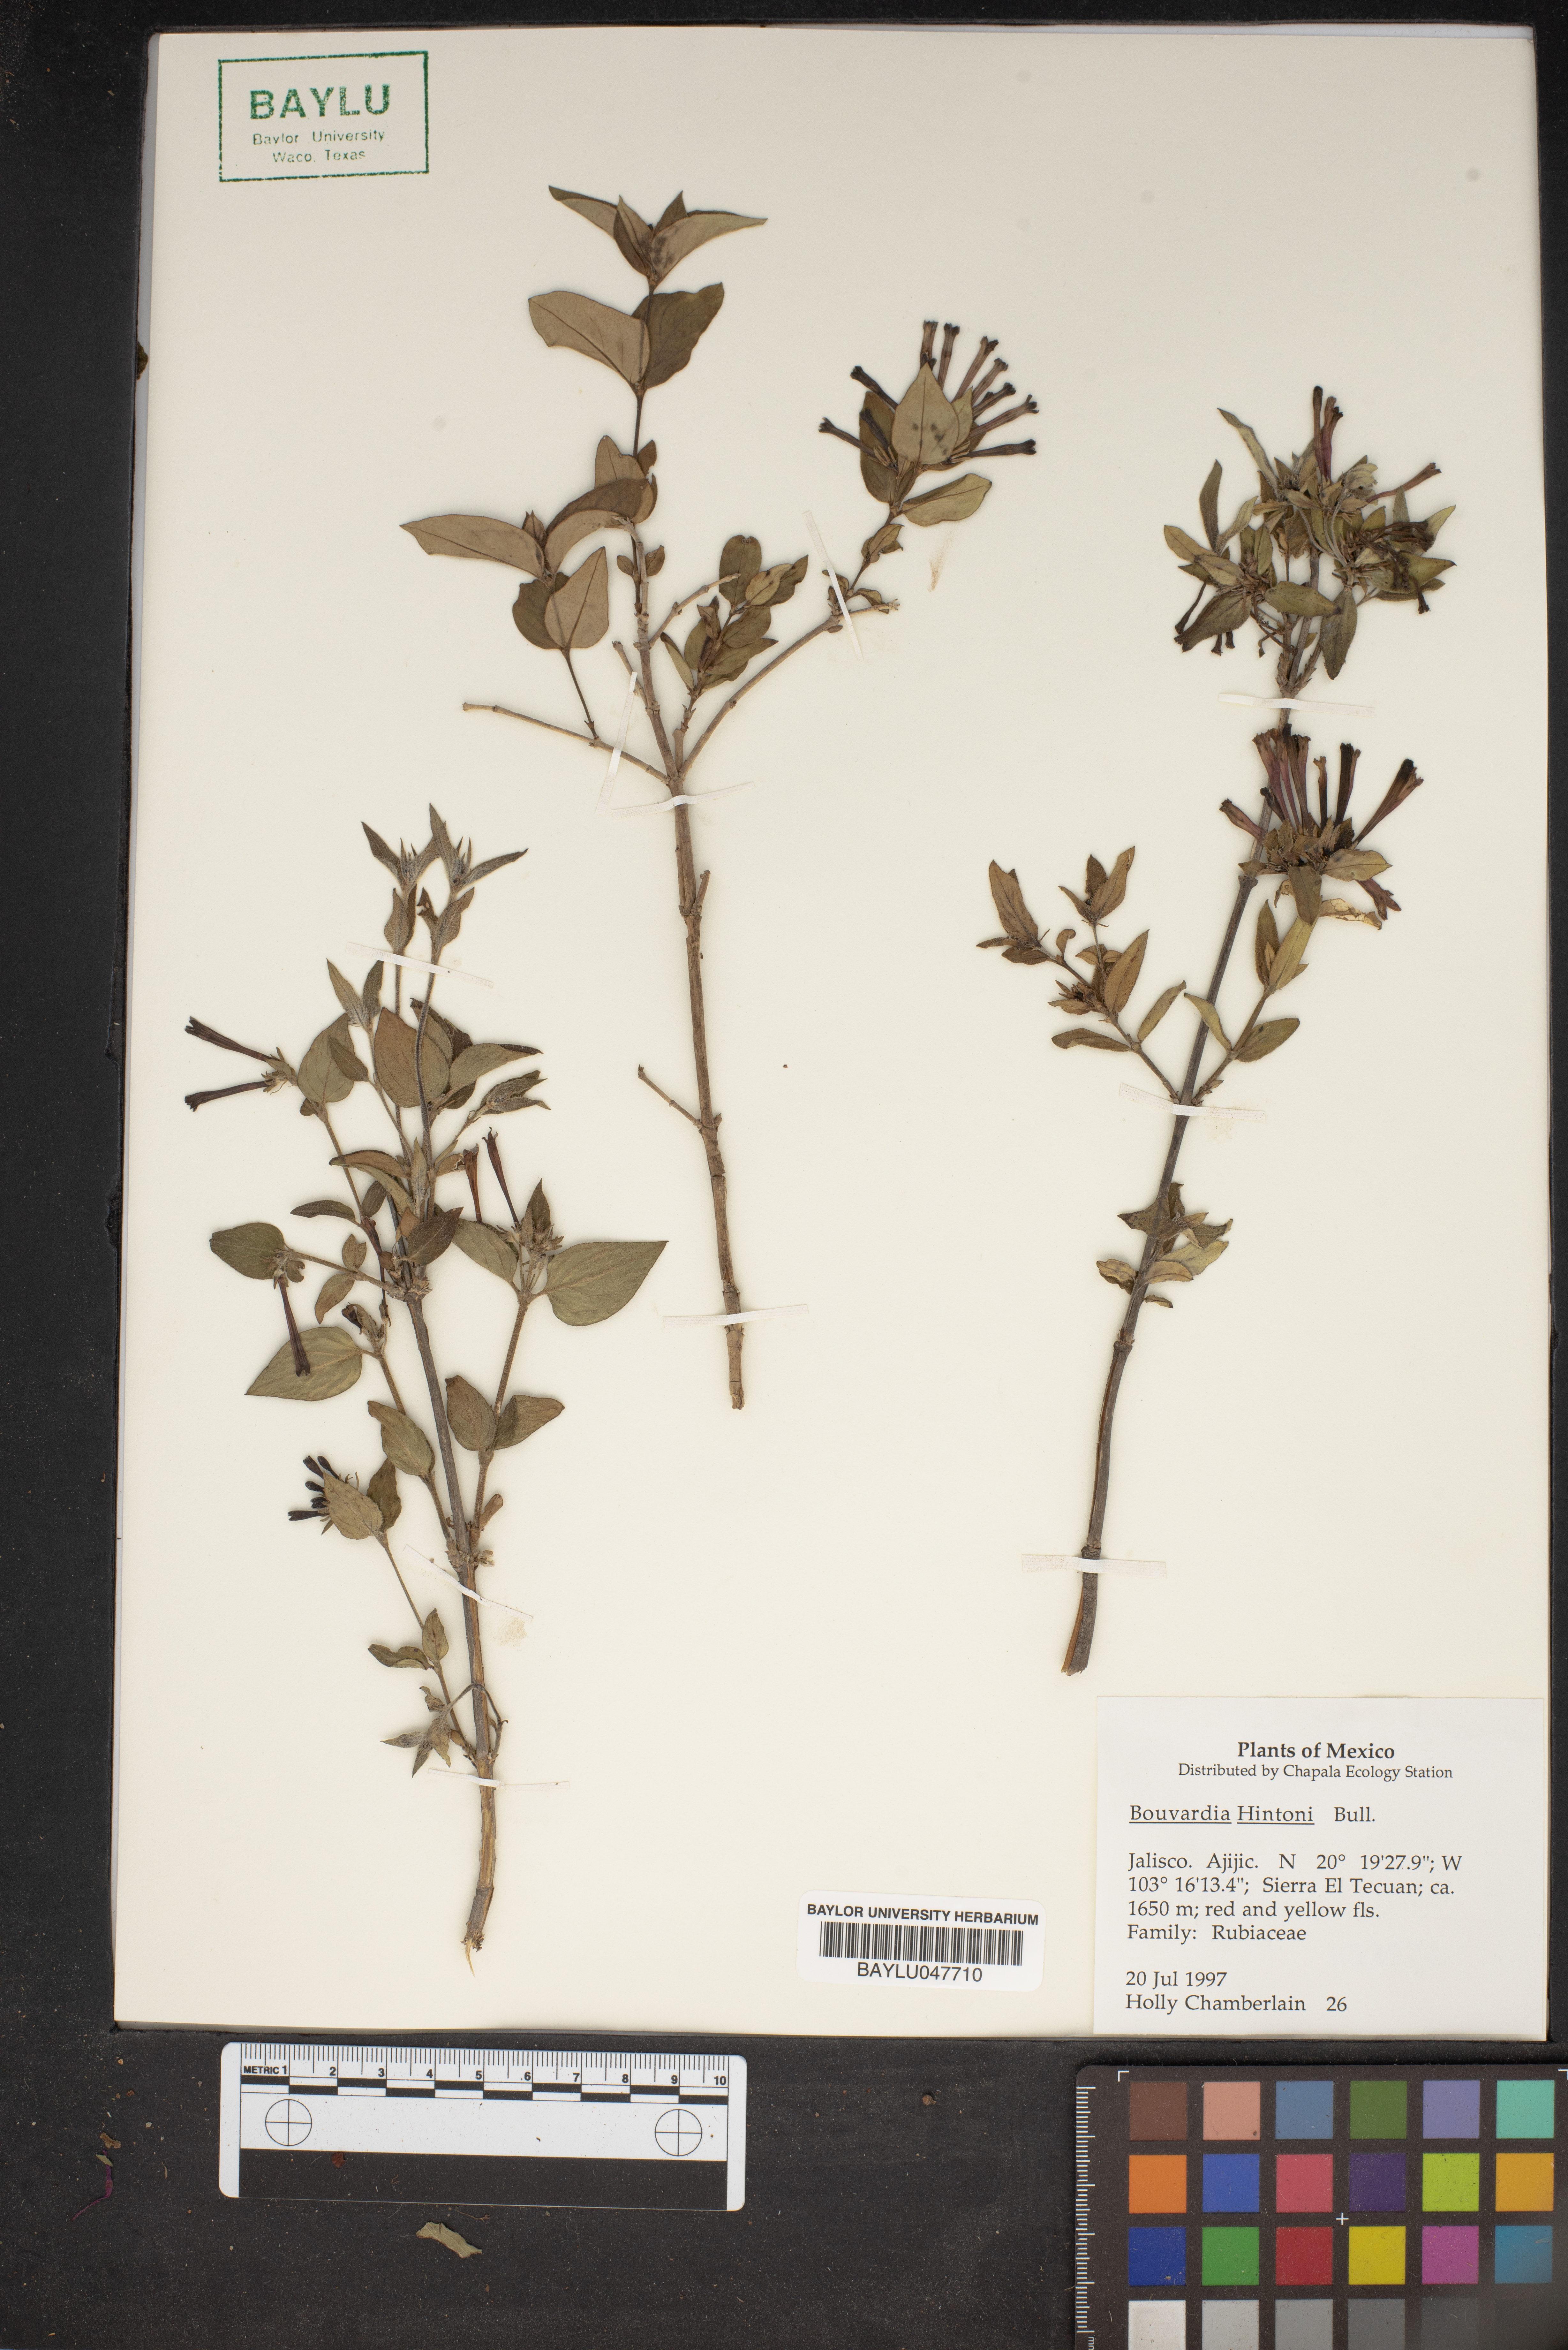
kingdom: Plantae
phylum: Tracheophyta
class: Magnoliopsida
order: Gentianales
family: Rubiaceae
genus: Bouvardia
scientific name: Bouvardia loeseneriana
